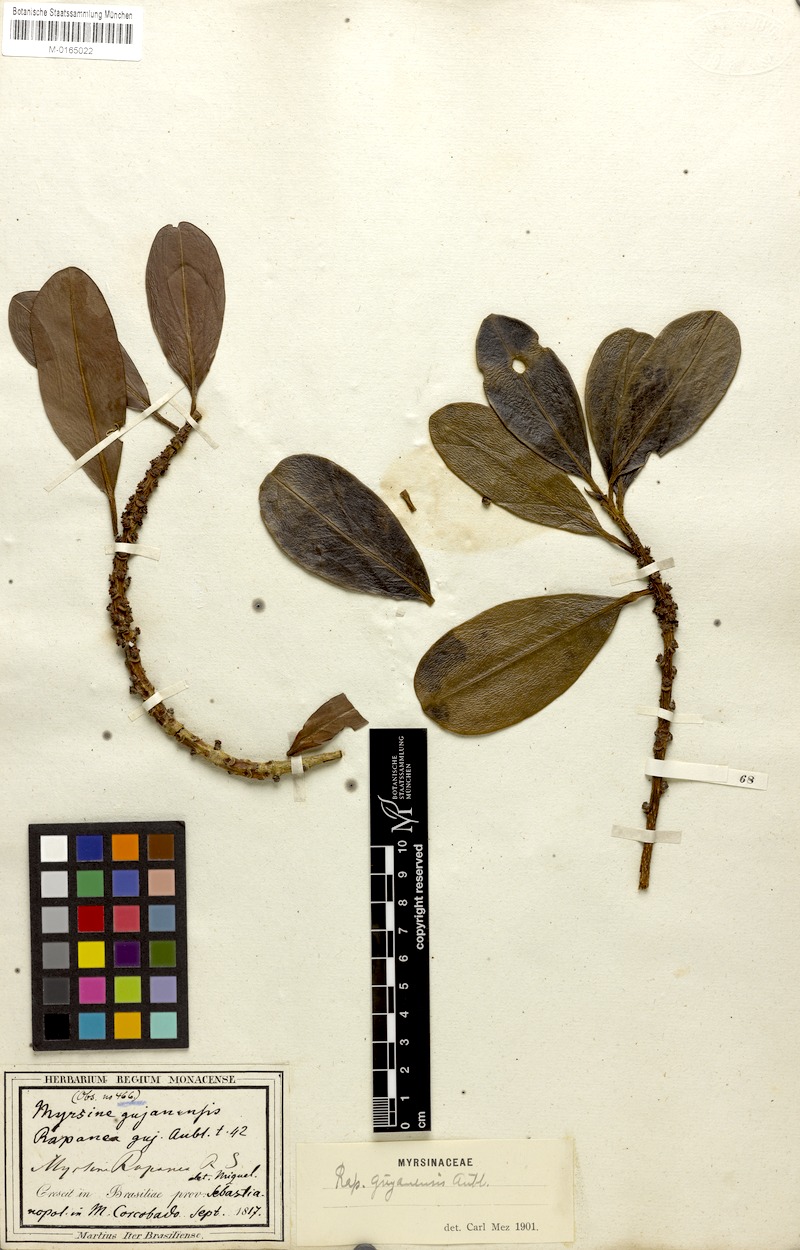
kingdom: Plantae
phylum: Tracheophyta
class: Magnoliopsida
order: Ericales
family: Primulaceae
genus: Myrsine
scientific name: Myrsine guianensis
